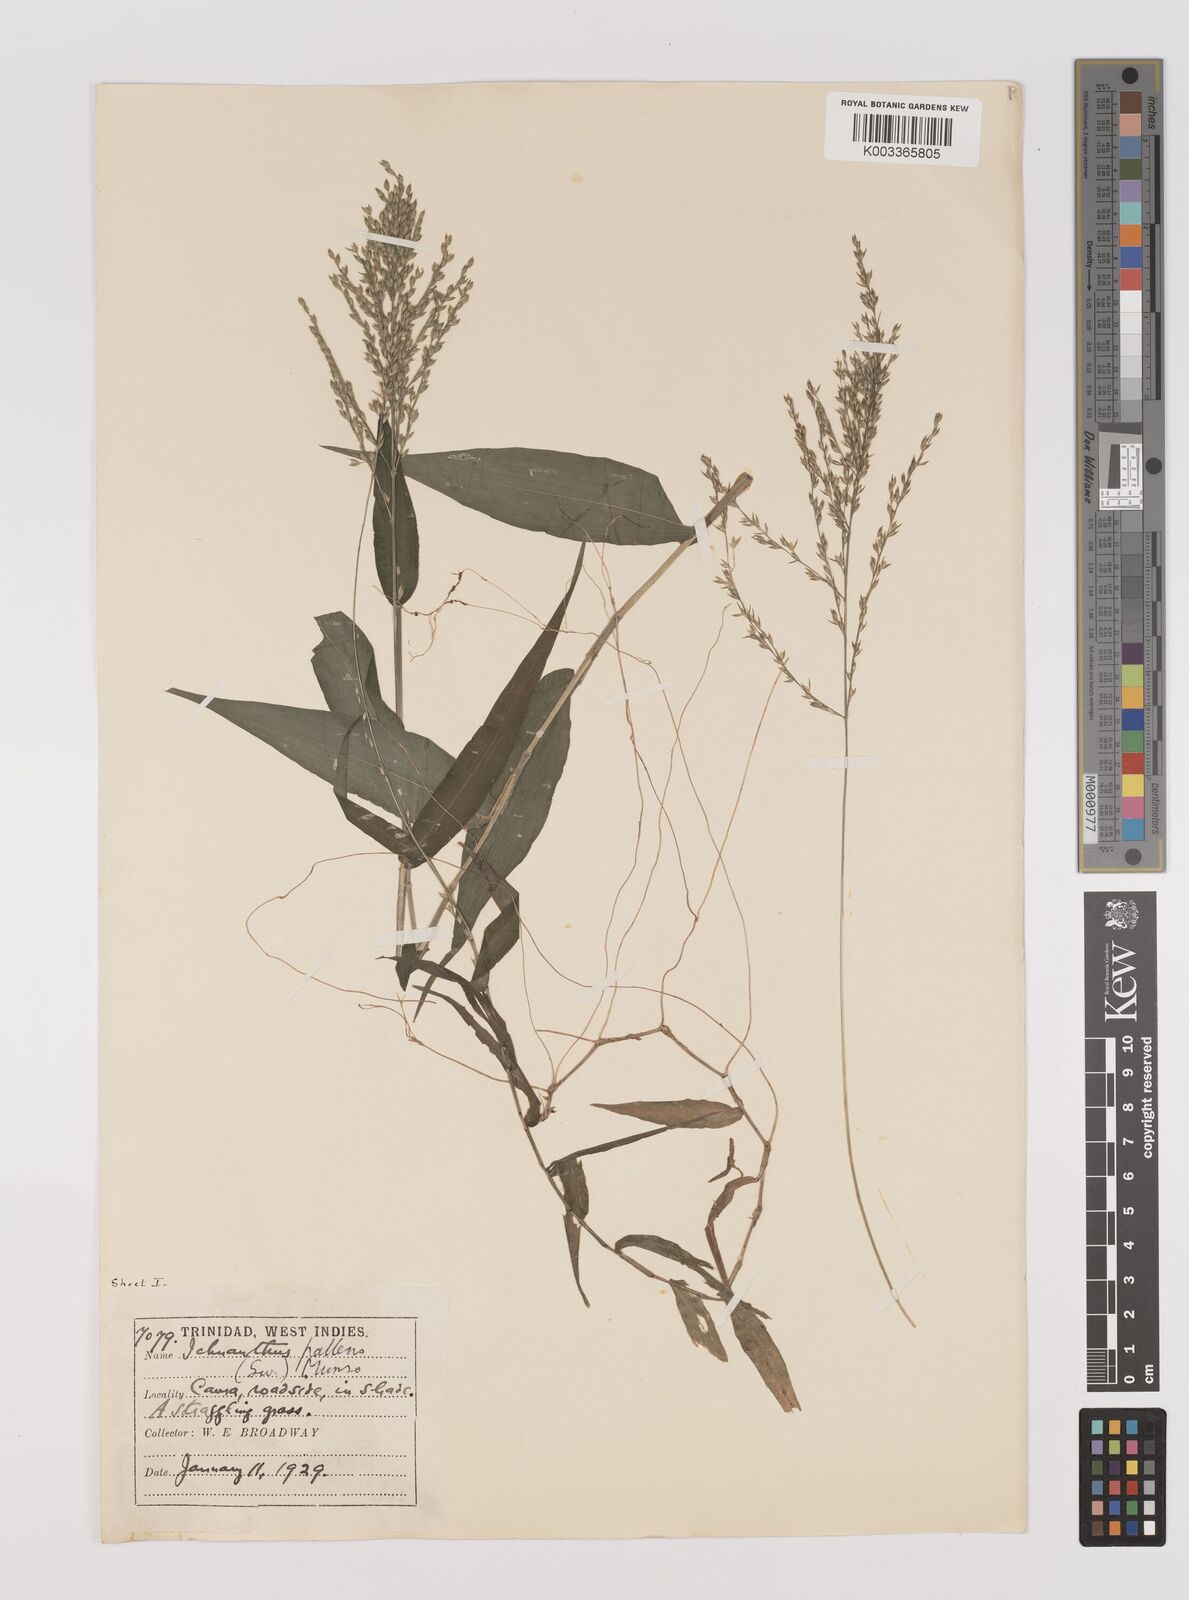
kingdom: Plantae
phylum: Tracheophyta
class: Liliopsida
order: Poales
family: Poaceae
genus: Ichnanthus
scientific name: Ichnanthus pallens
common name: Water grass
